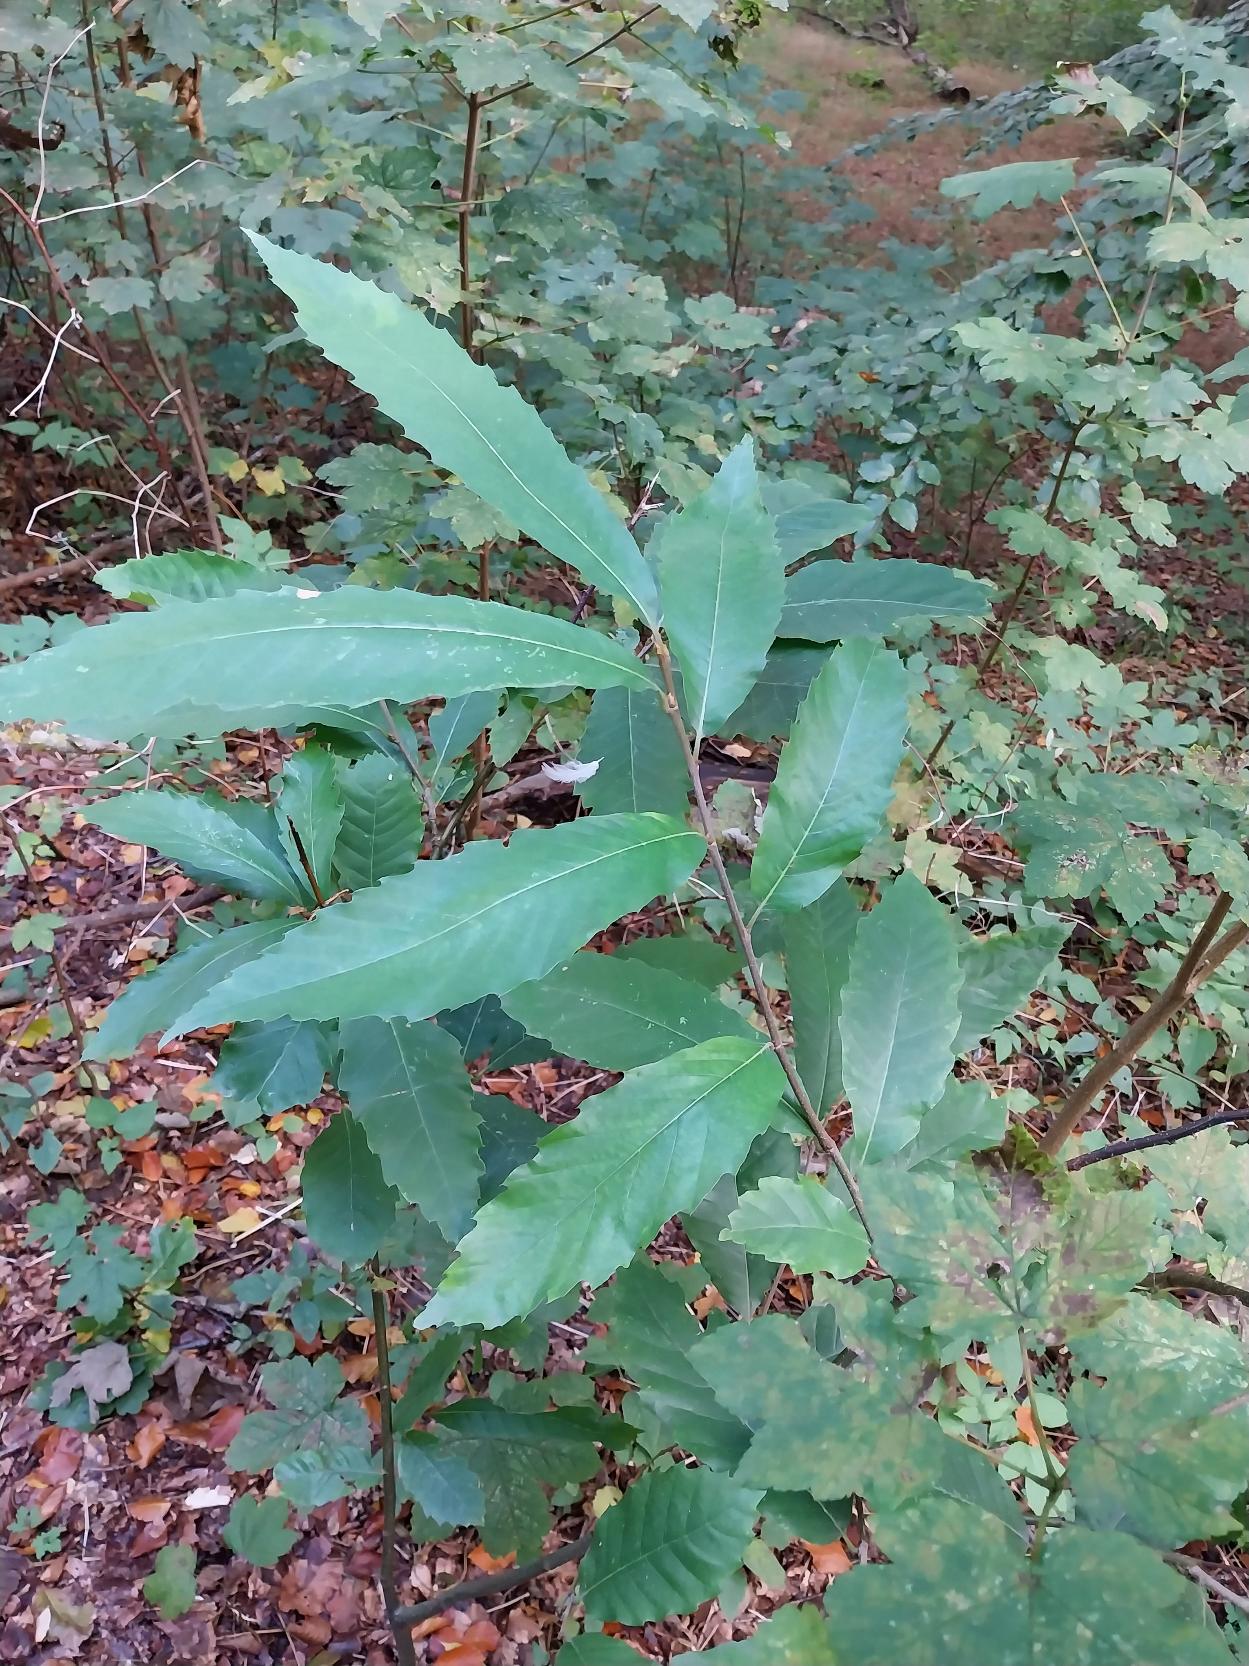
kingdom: Plantae
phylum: Tracheophyta
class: Magnoliopsida
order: Fagales
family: Fagaceae
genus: Castanea
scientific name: Castanea sativa
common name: Ægte kastanie
